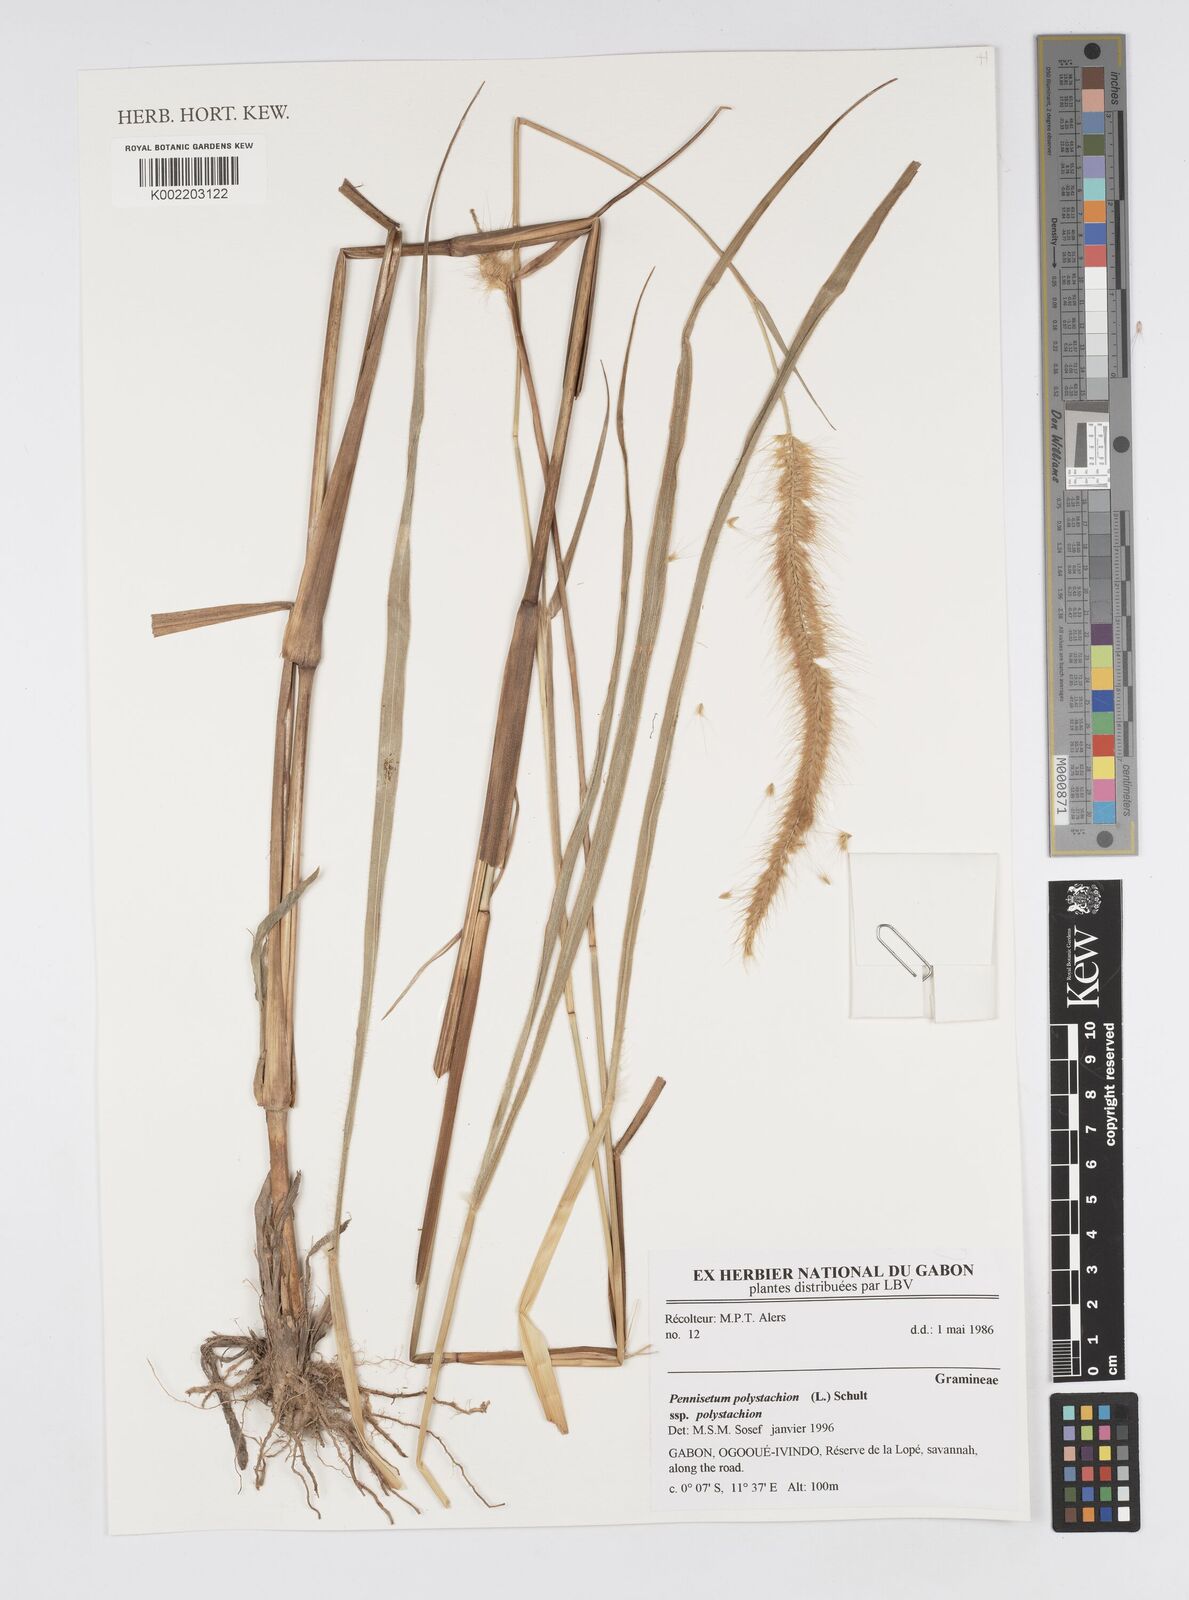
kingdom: Plantae
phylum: Tracheophyta
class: Liliopsida
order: Poales
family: Poaceae
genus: Setaria
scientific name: Setaria parviflora
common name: Knotroot bristle-grass
